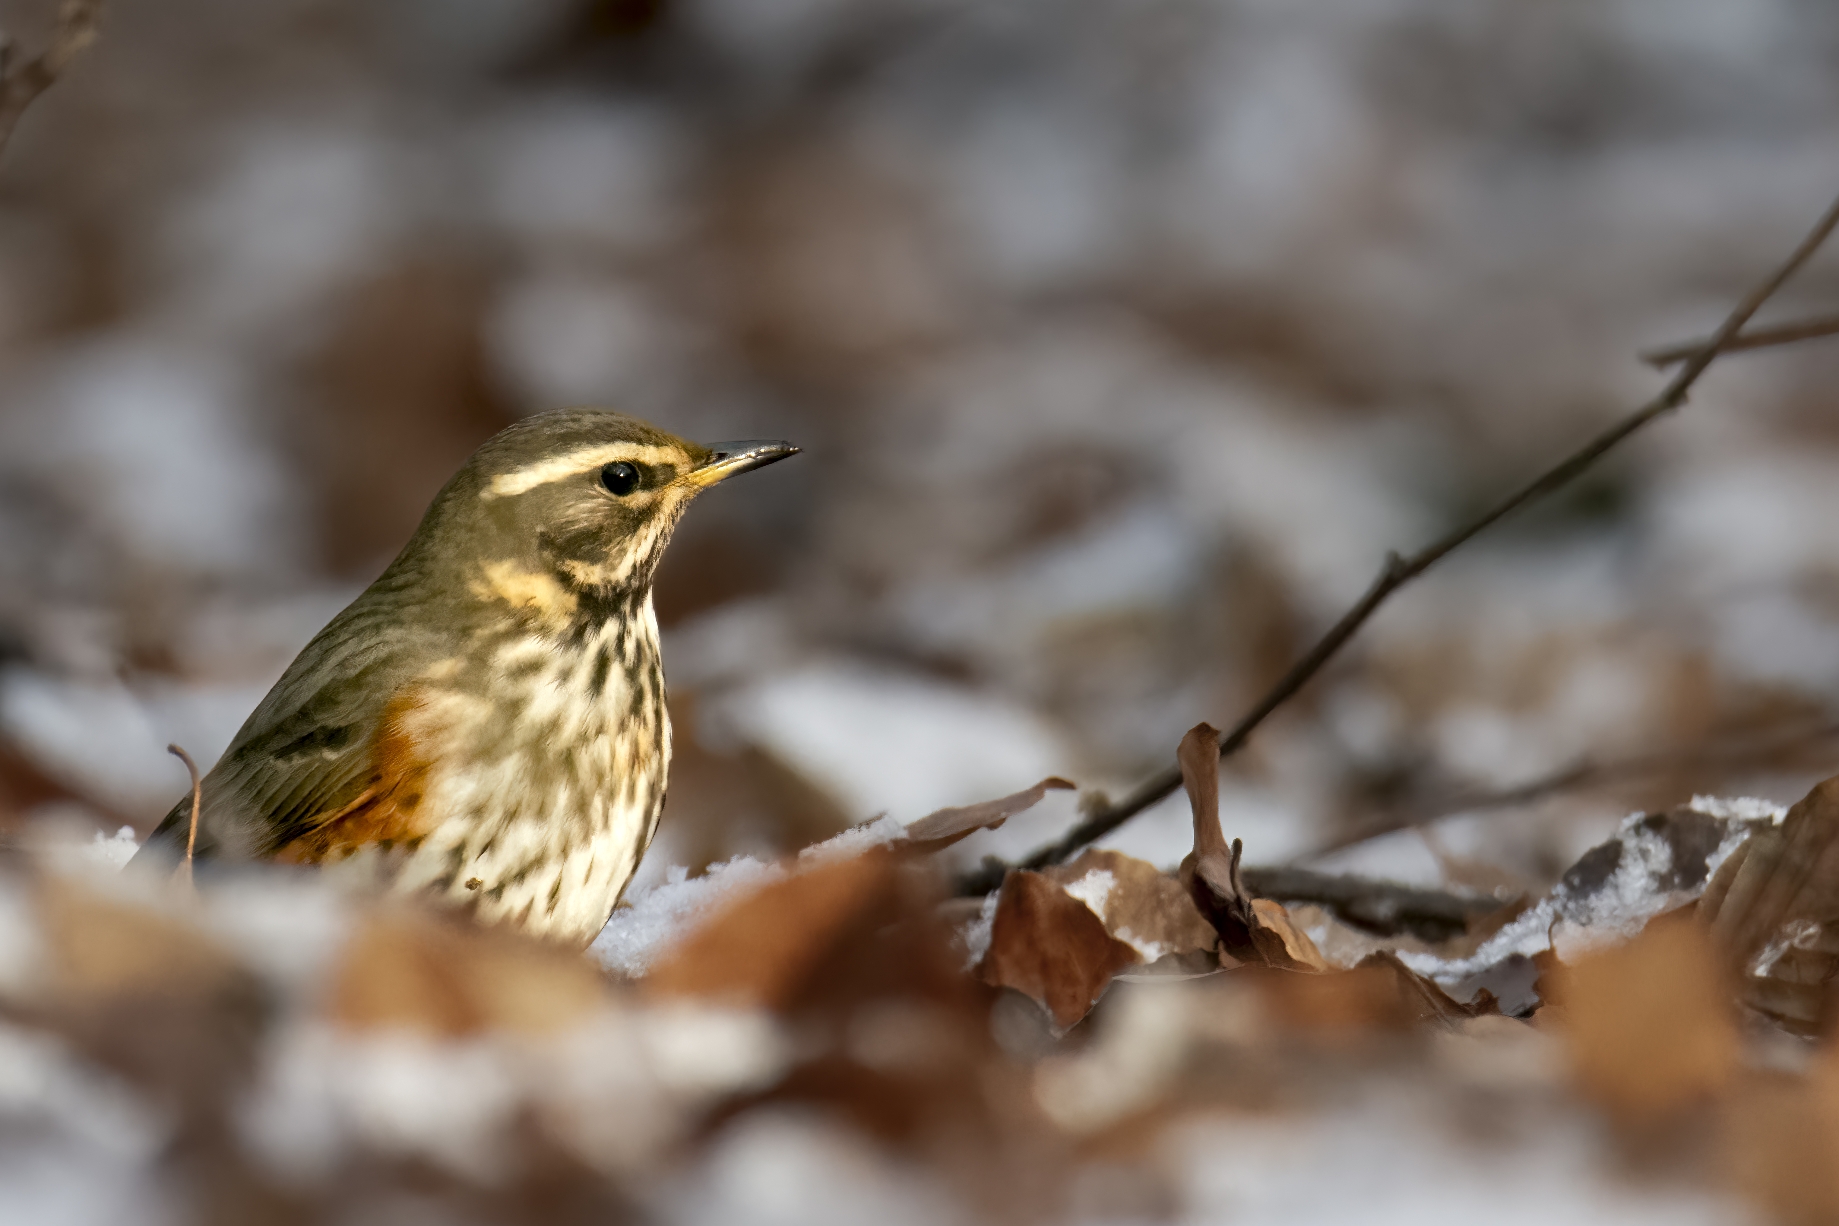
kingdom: Animalia
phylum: Chordata
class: Aves
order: Passeriformes
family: Turdidae
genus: Turdus
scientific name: Turdus iliacus
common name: Vindrossel
